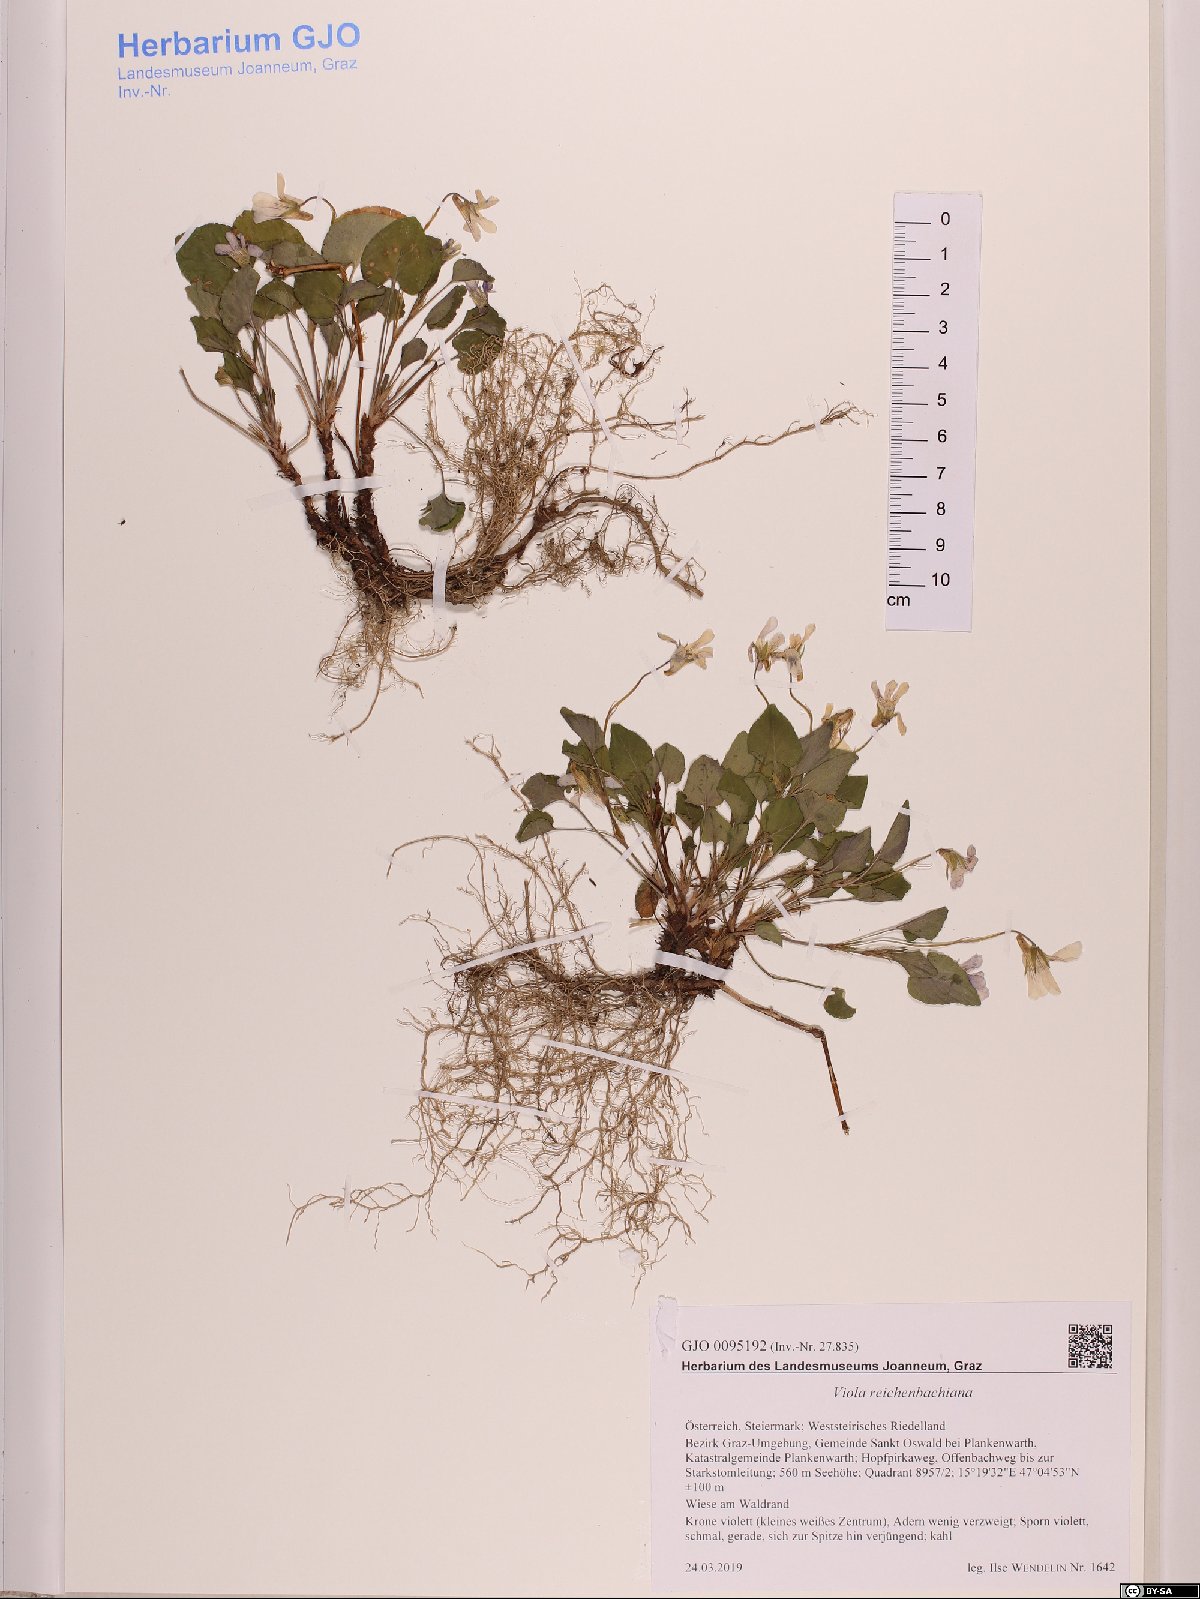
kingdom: Plantae
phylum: Tracheophyta
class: Magnoliopsida
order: Malpighiales
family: Violaceae
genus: Viola
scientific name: Viola reichenbachiana
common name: Early dog-violet
